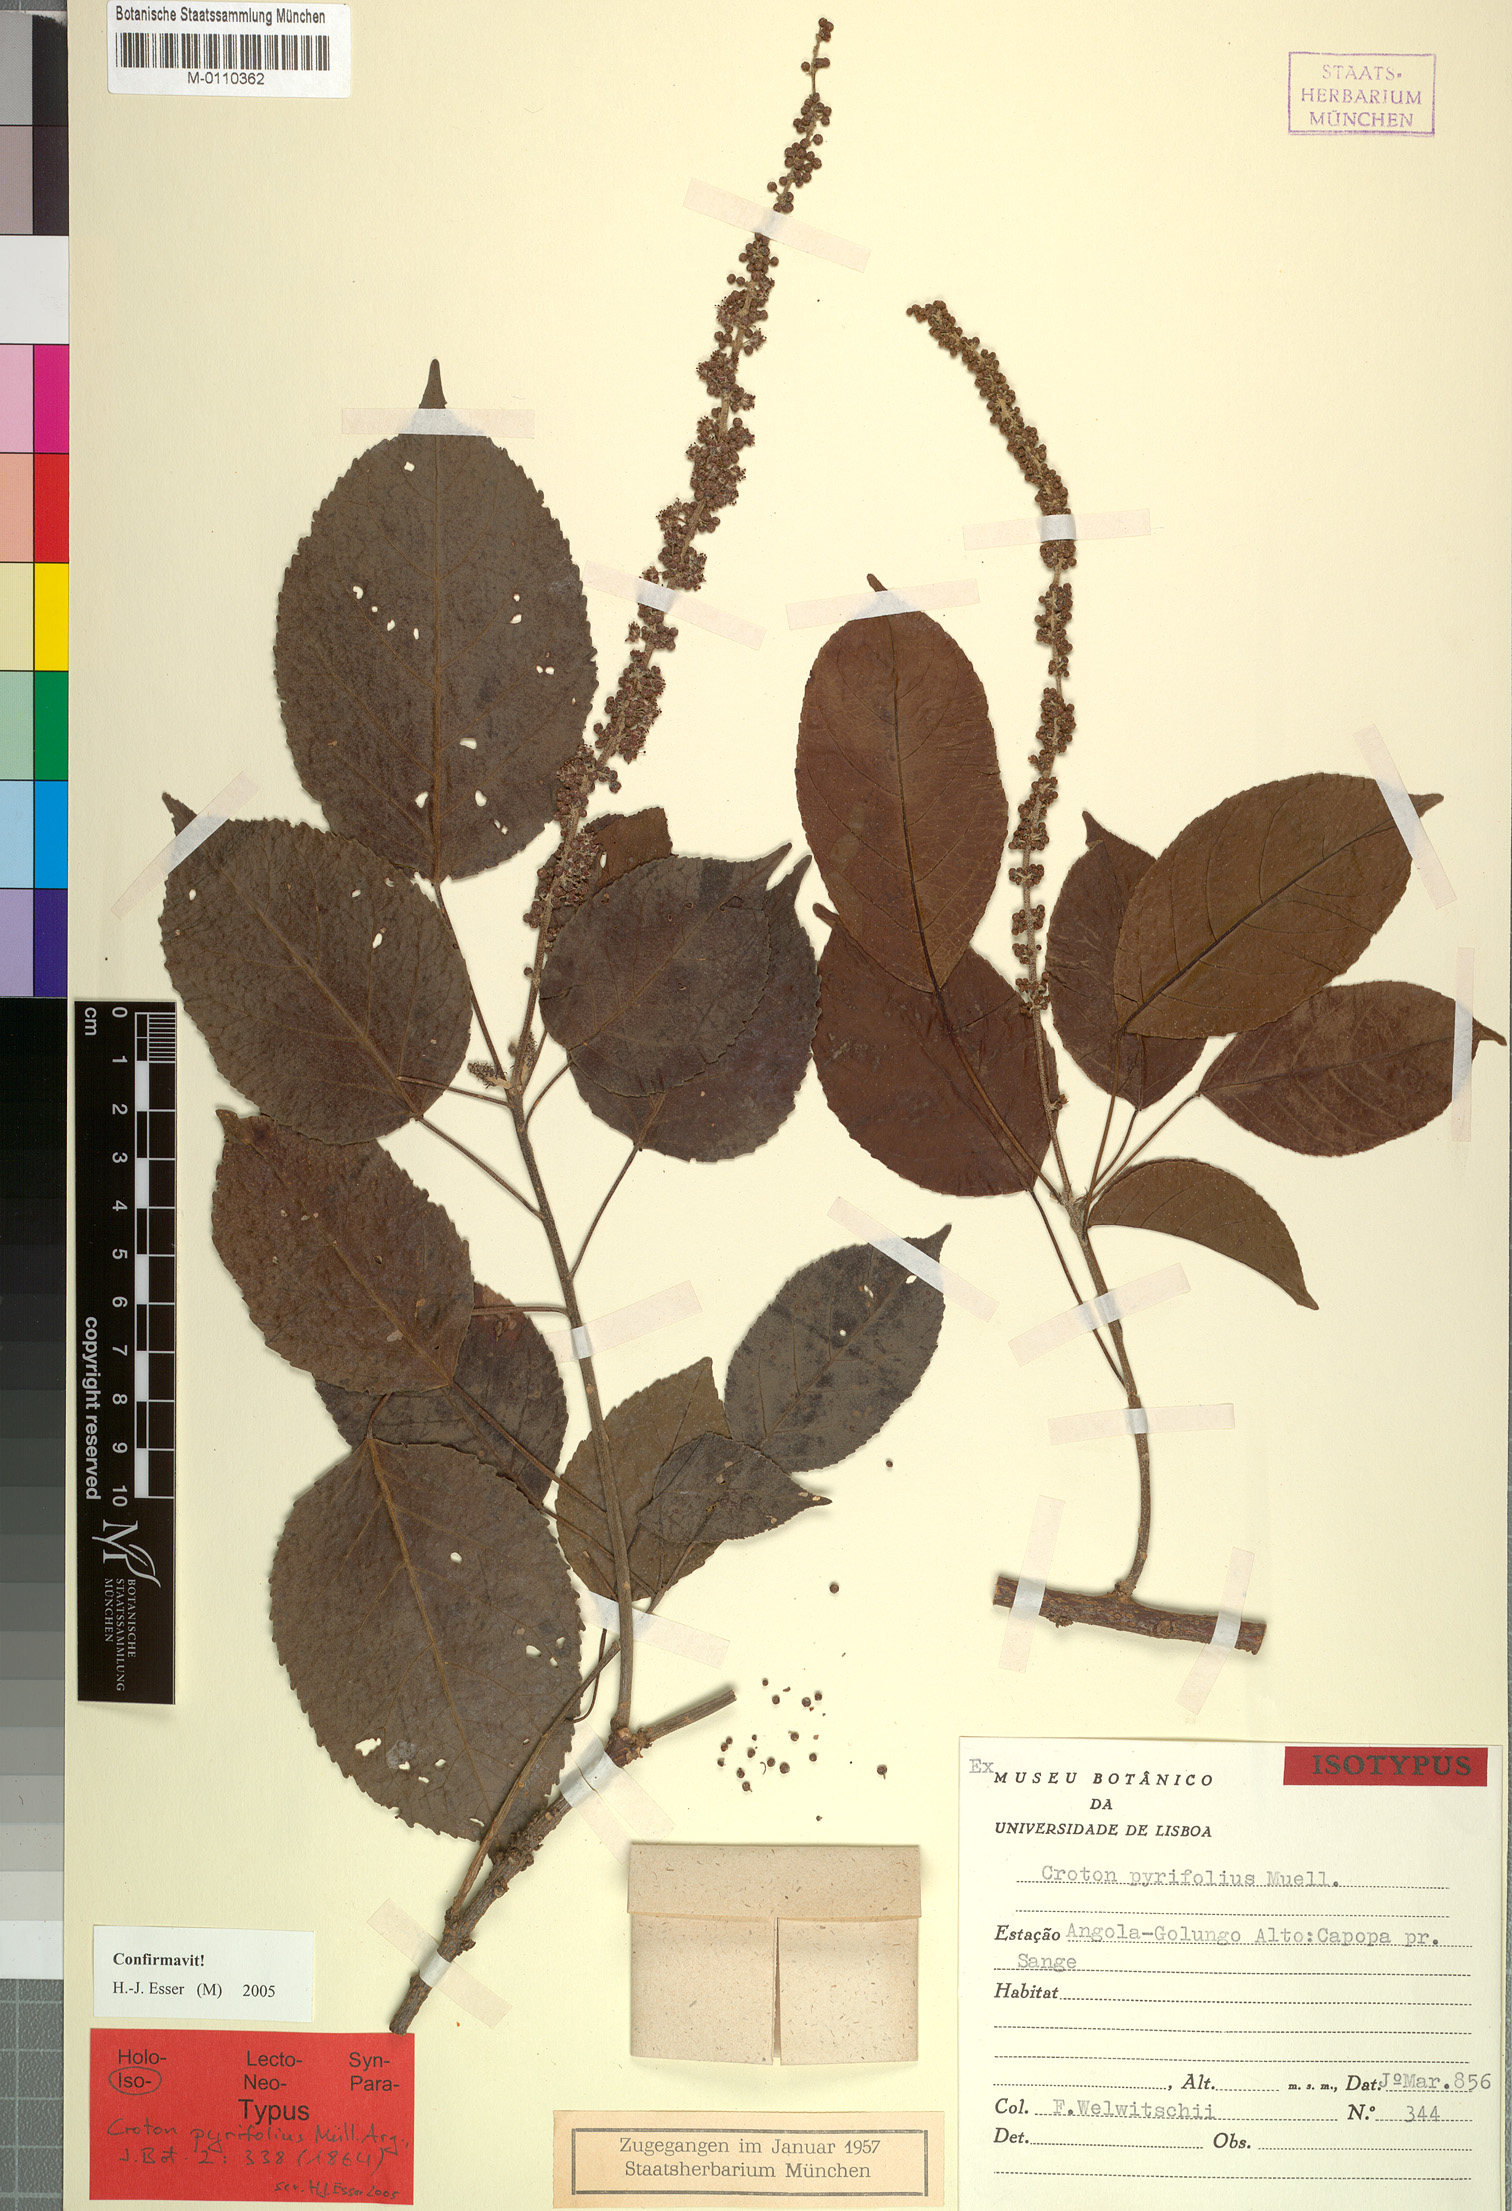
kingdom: Plantae
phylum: Tracheophyta
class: Magnoliopsida
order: Malpighiales
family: Euphorbiaceae
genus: Croton
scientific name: Croton pyrifolius
